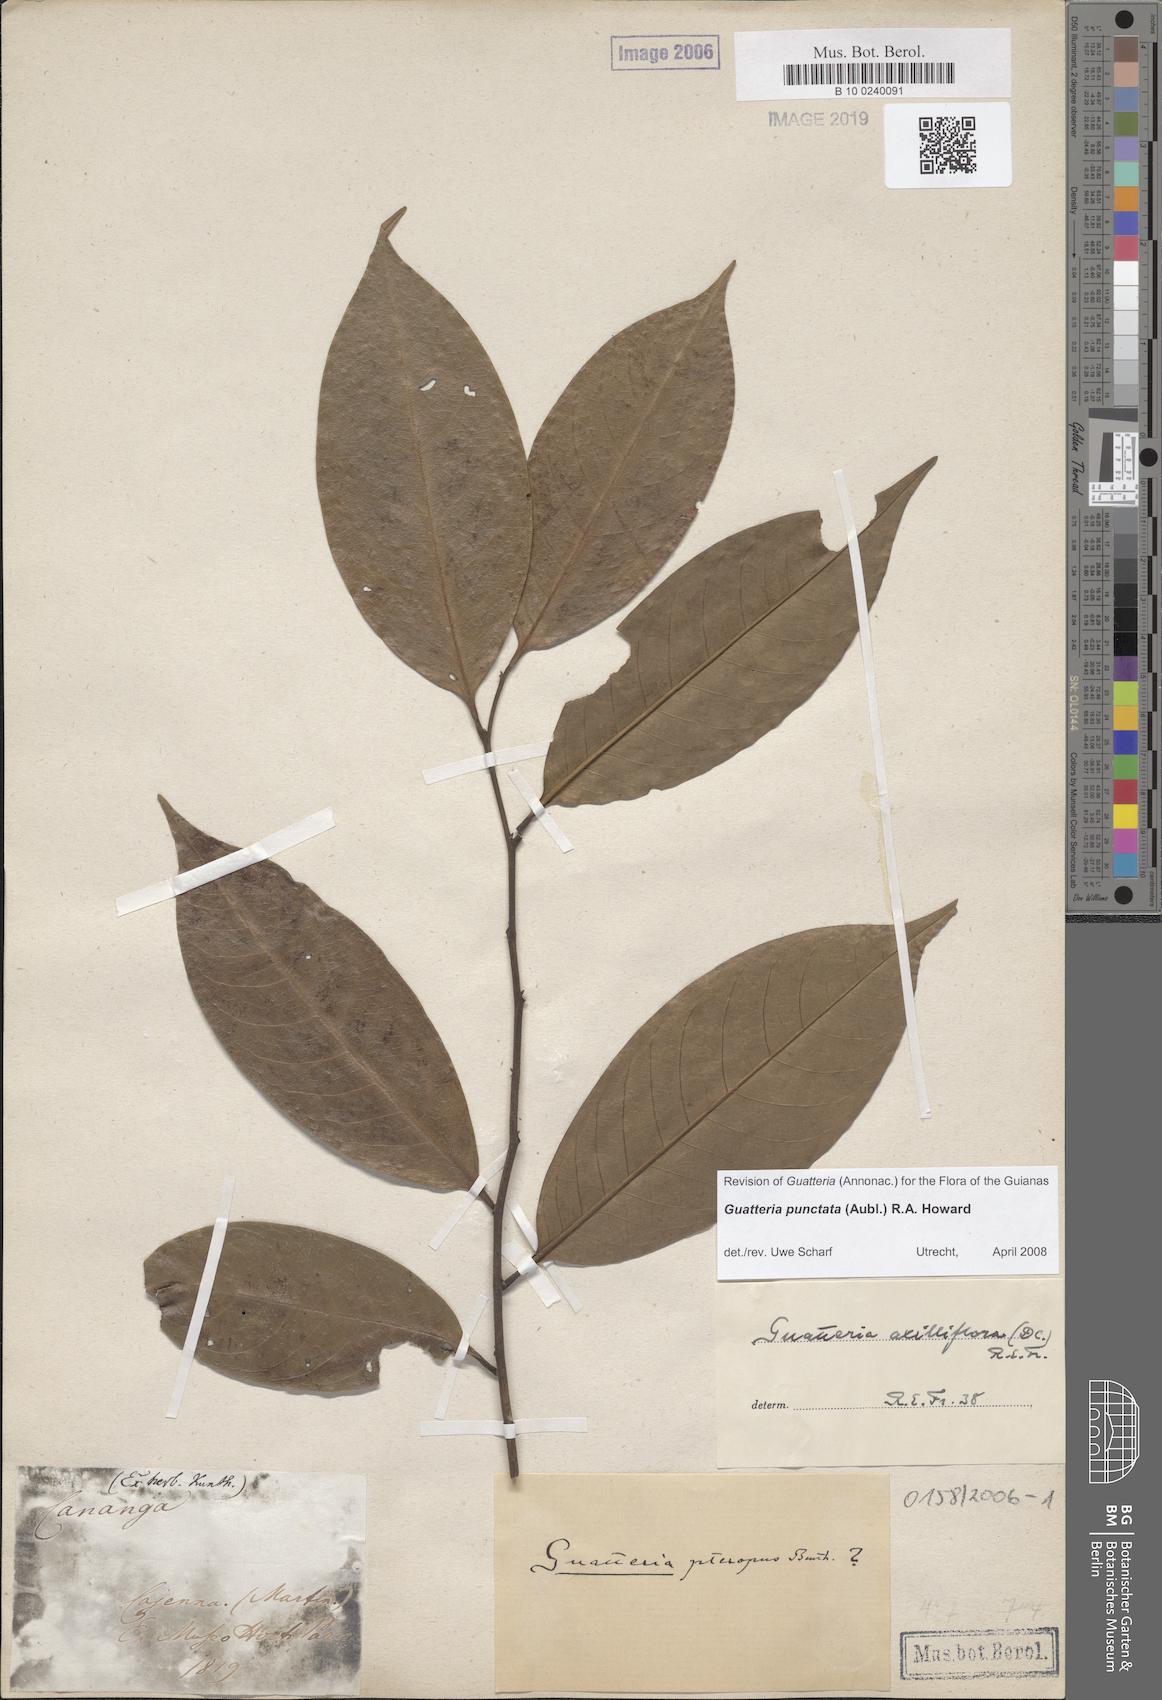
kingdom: Plantae
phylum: Tracheophyta
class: Magnoliopsida
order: Magnoliales
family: Annonaceae
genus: Guatteria
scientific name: Guatteria axilliflora
